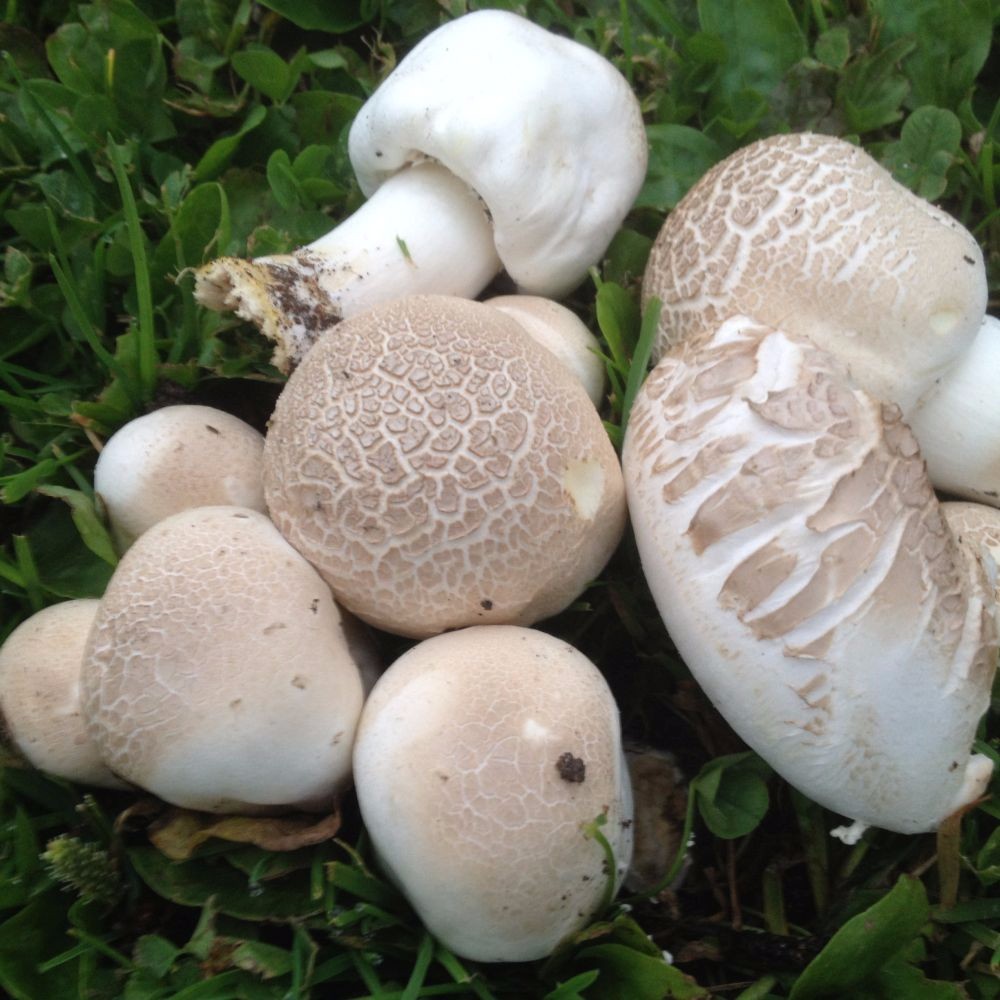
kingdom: Fungi
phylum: Basidiomycota
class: Agaricomycetes
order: Agaricales
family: Agaricaceae
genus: Agaricus
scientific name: Agaricus xanthodermus
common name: karbol-champignon
